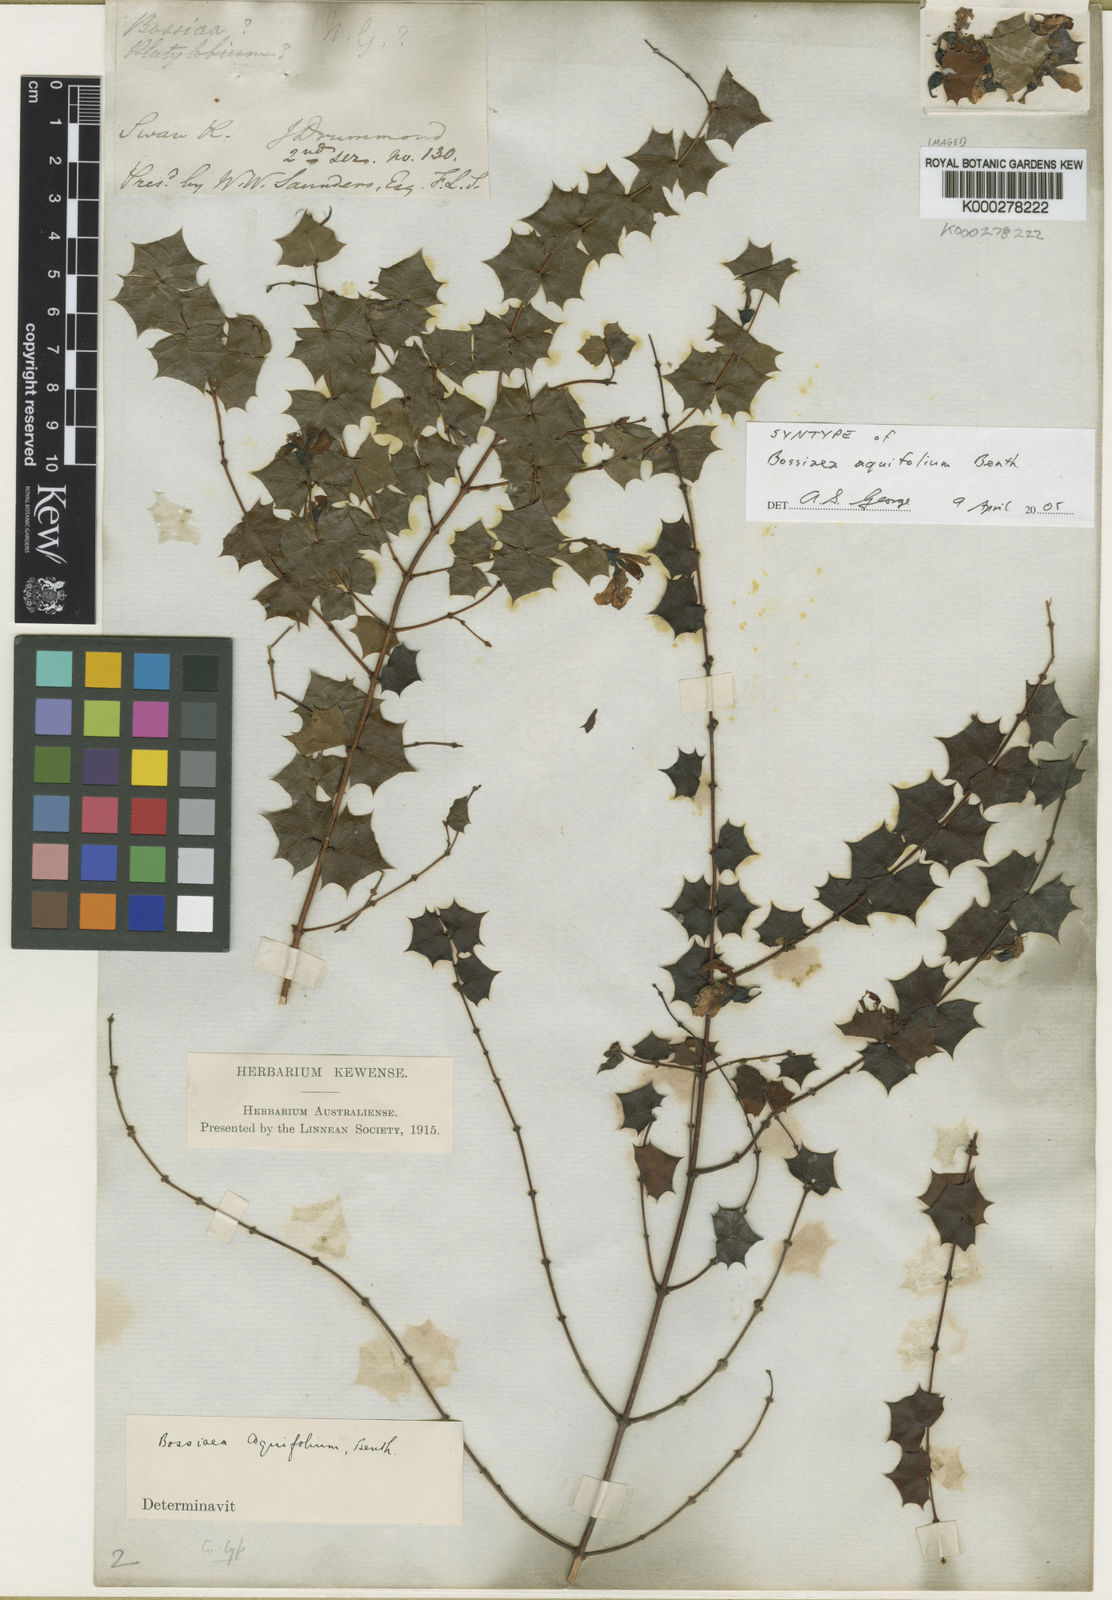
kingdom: Plantae
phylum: Tracheophyta
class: Magnoliopsida
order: Fabales
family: Fabaceae
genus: Bossiaea
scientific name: Bossiaea aquifolium
